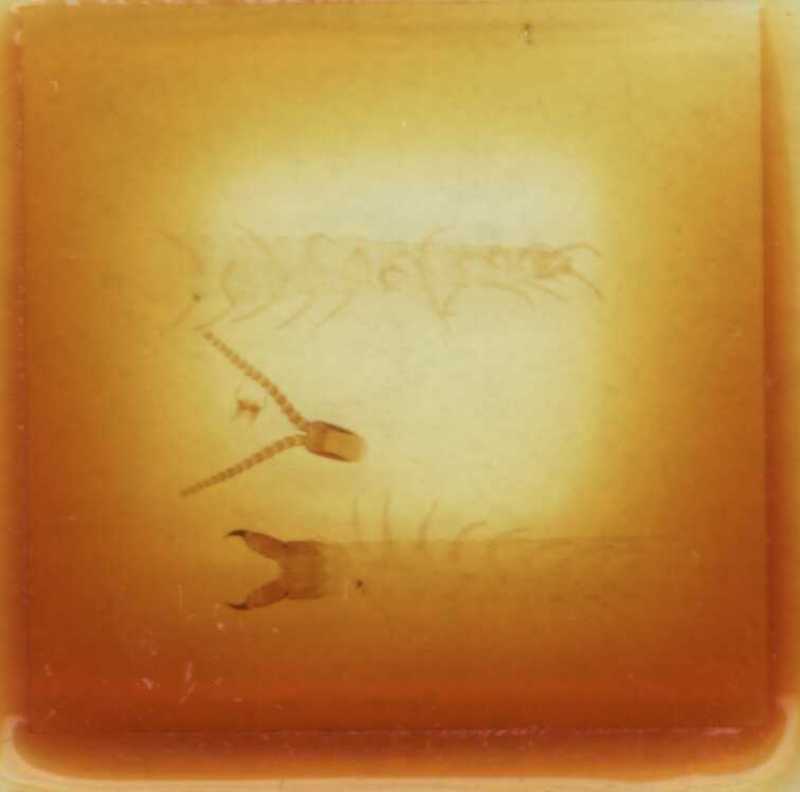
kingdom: Animalia
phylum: Arthropoda
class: Chilopoda
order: Geophilomorpha
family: Mecistocephalidae
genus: Mecistocephalus
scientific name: Mecistocephalus parvidentatus
